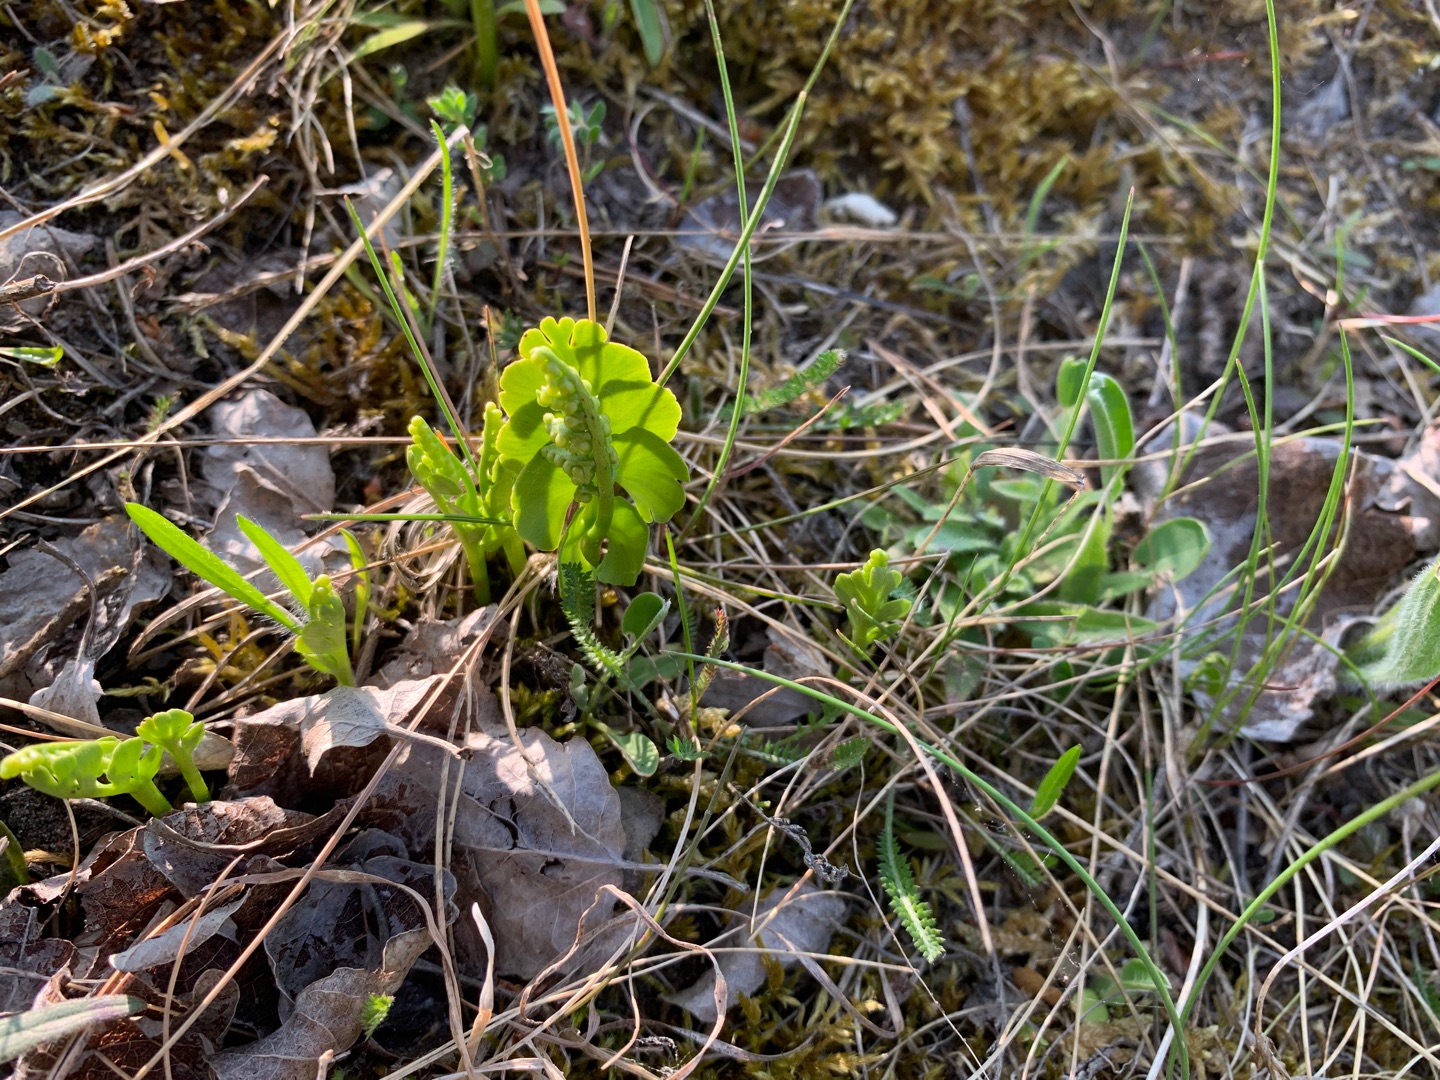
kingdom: Plantae
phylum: Tracheophyta
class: Polypodiopsida
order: Ophioglossales
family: Ophioglossaceae
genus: Botrychium
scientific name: Botrychium lunaria
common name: Almindelig månerude
